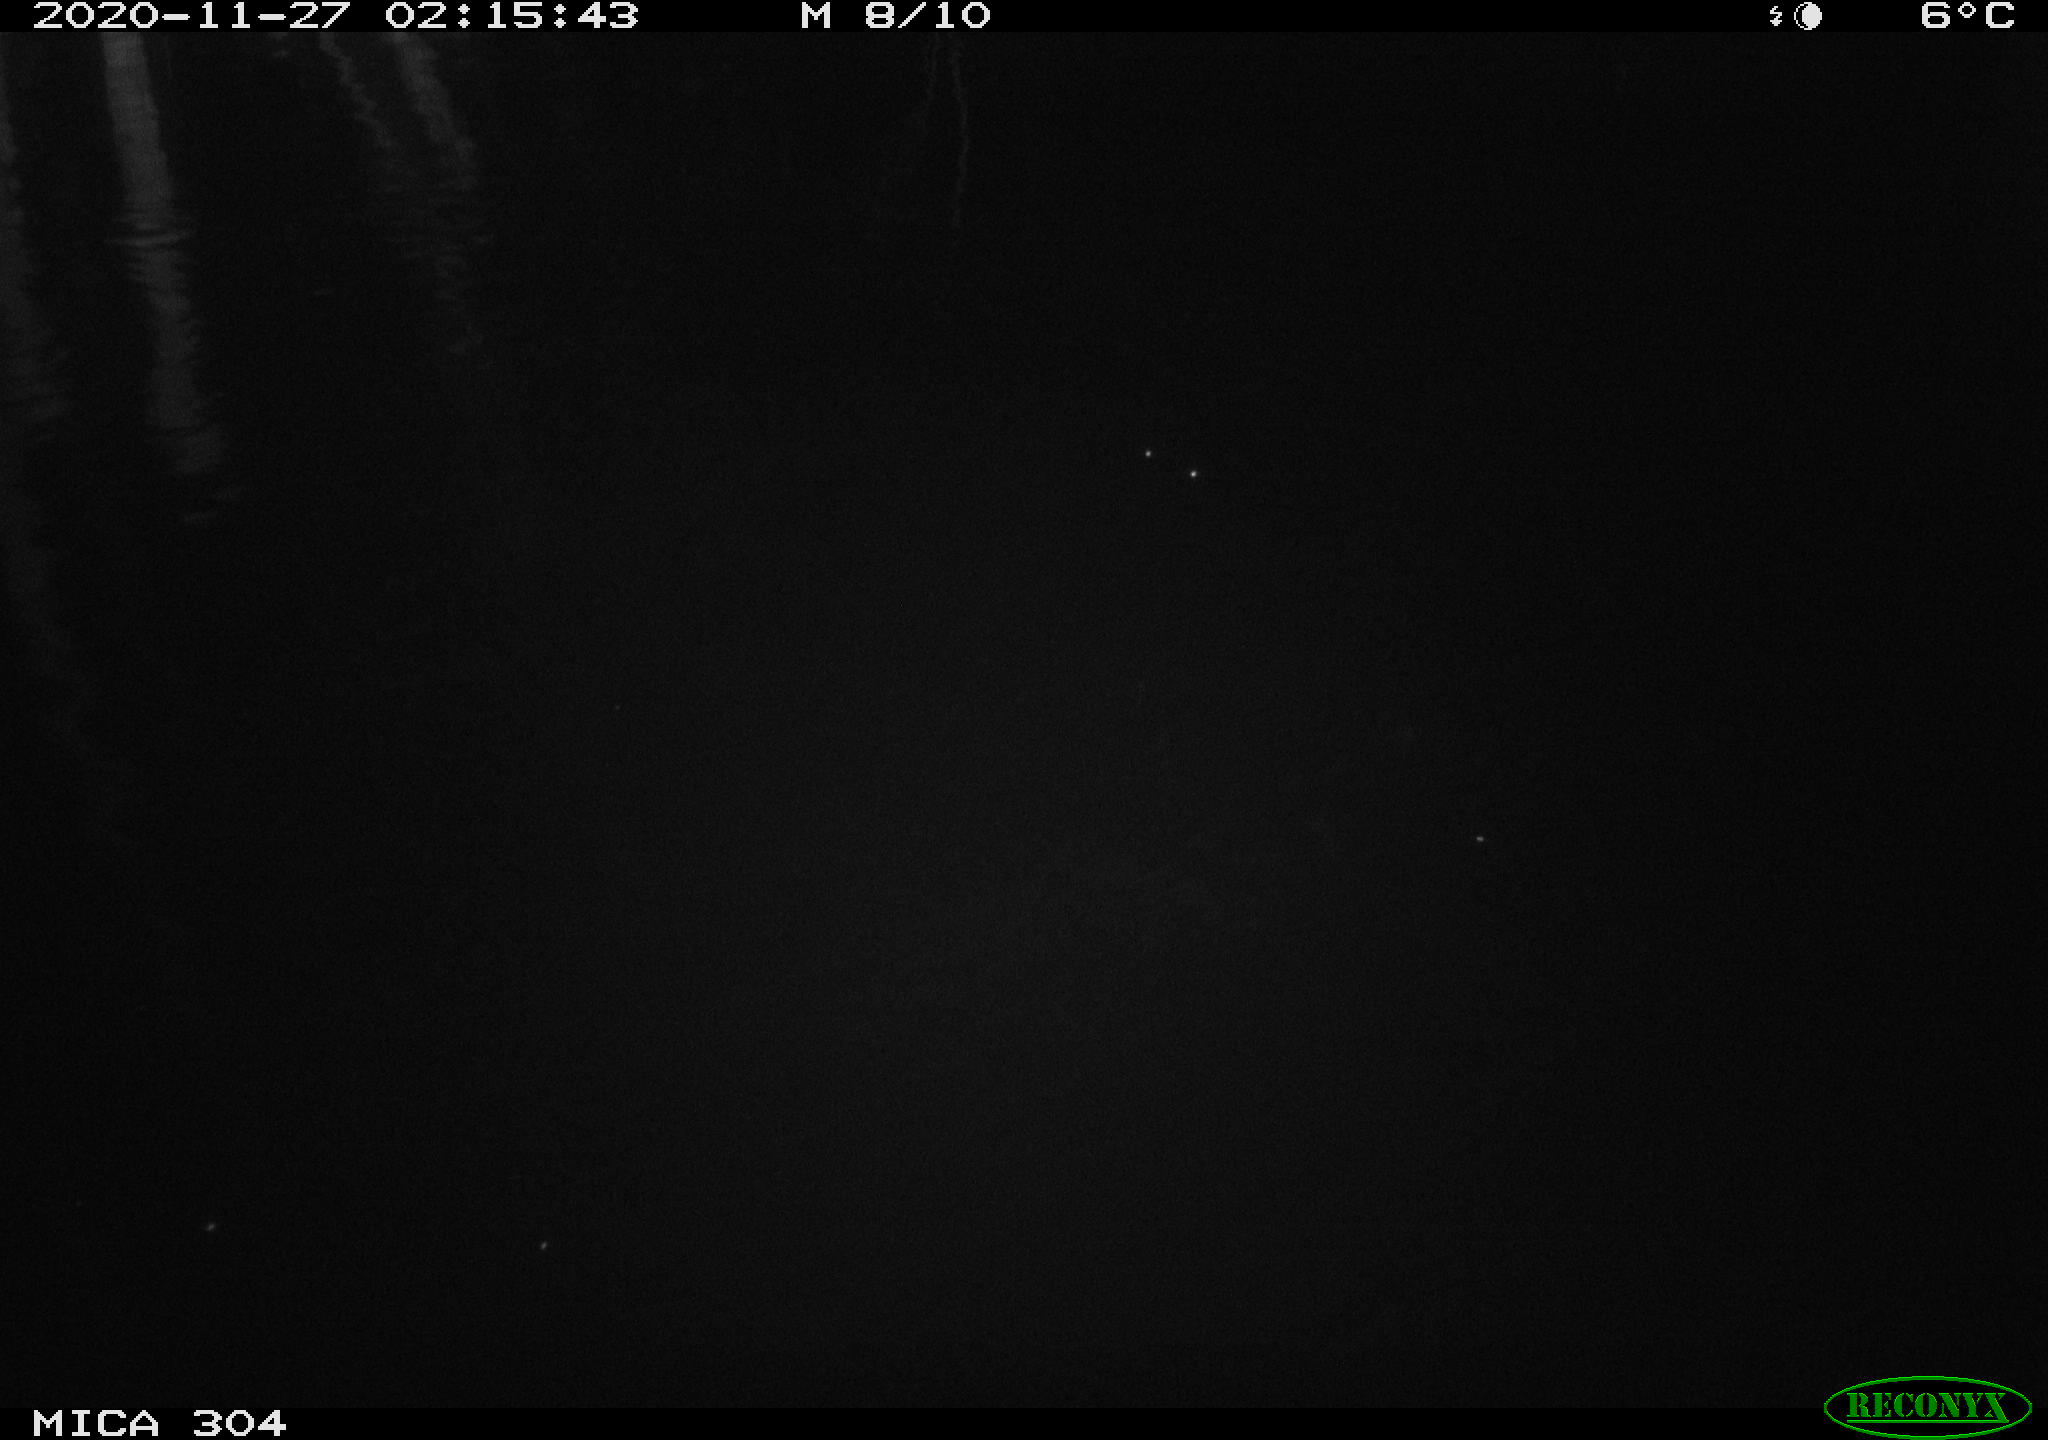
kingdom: Animalia
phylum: Chordata
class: Mammalia
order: Rodentia
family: Muridae
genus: Rattus
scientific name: Rattus norvegicus
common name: Brown rat
